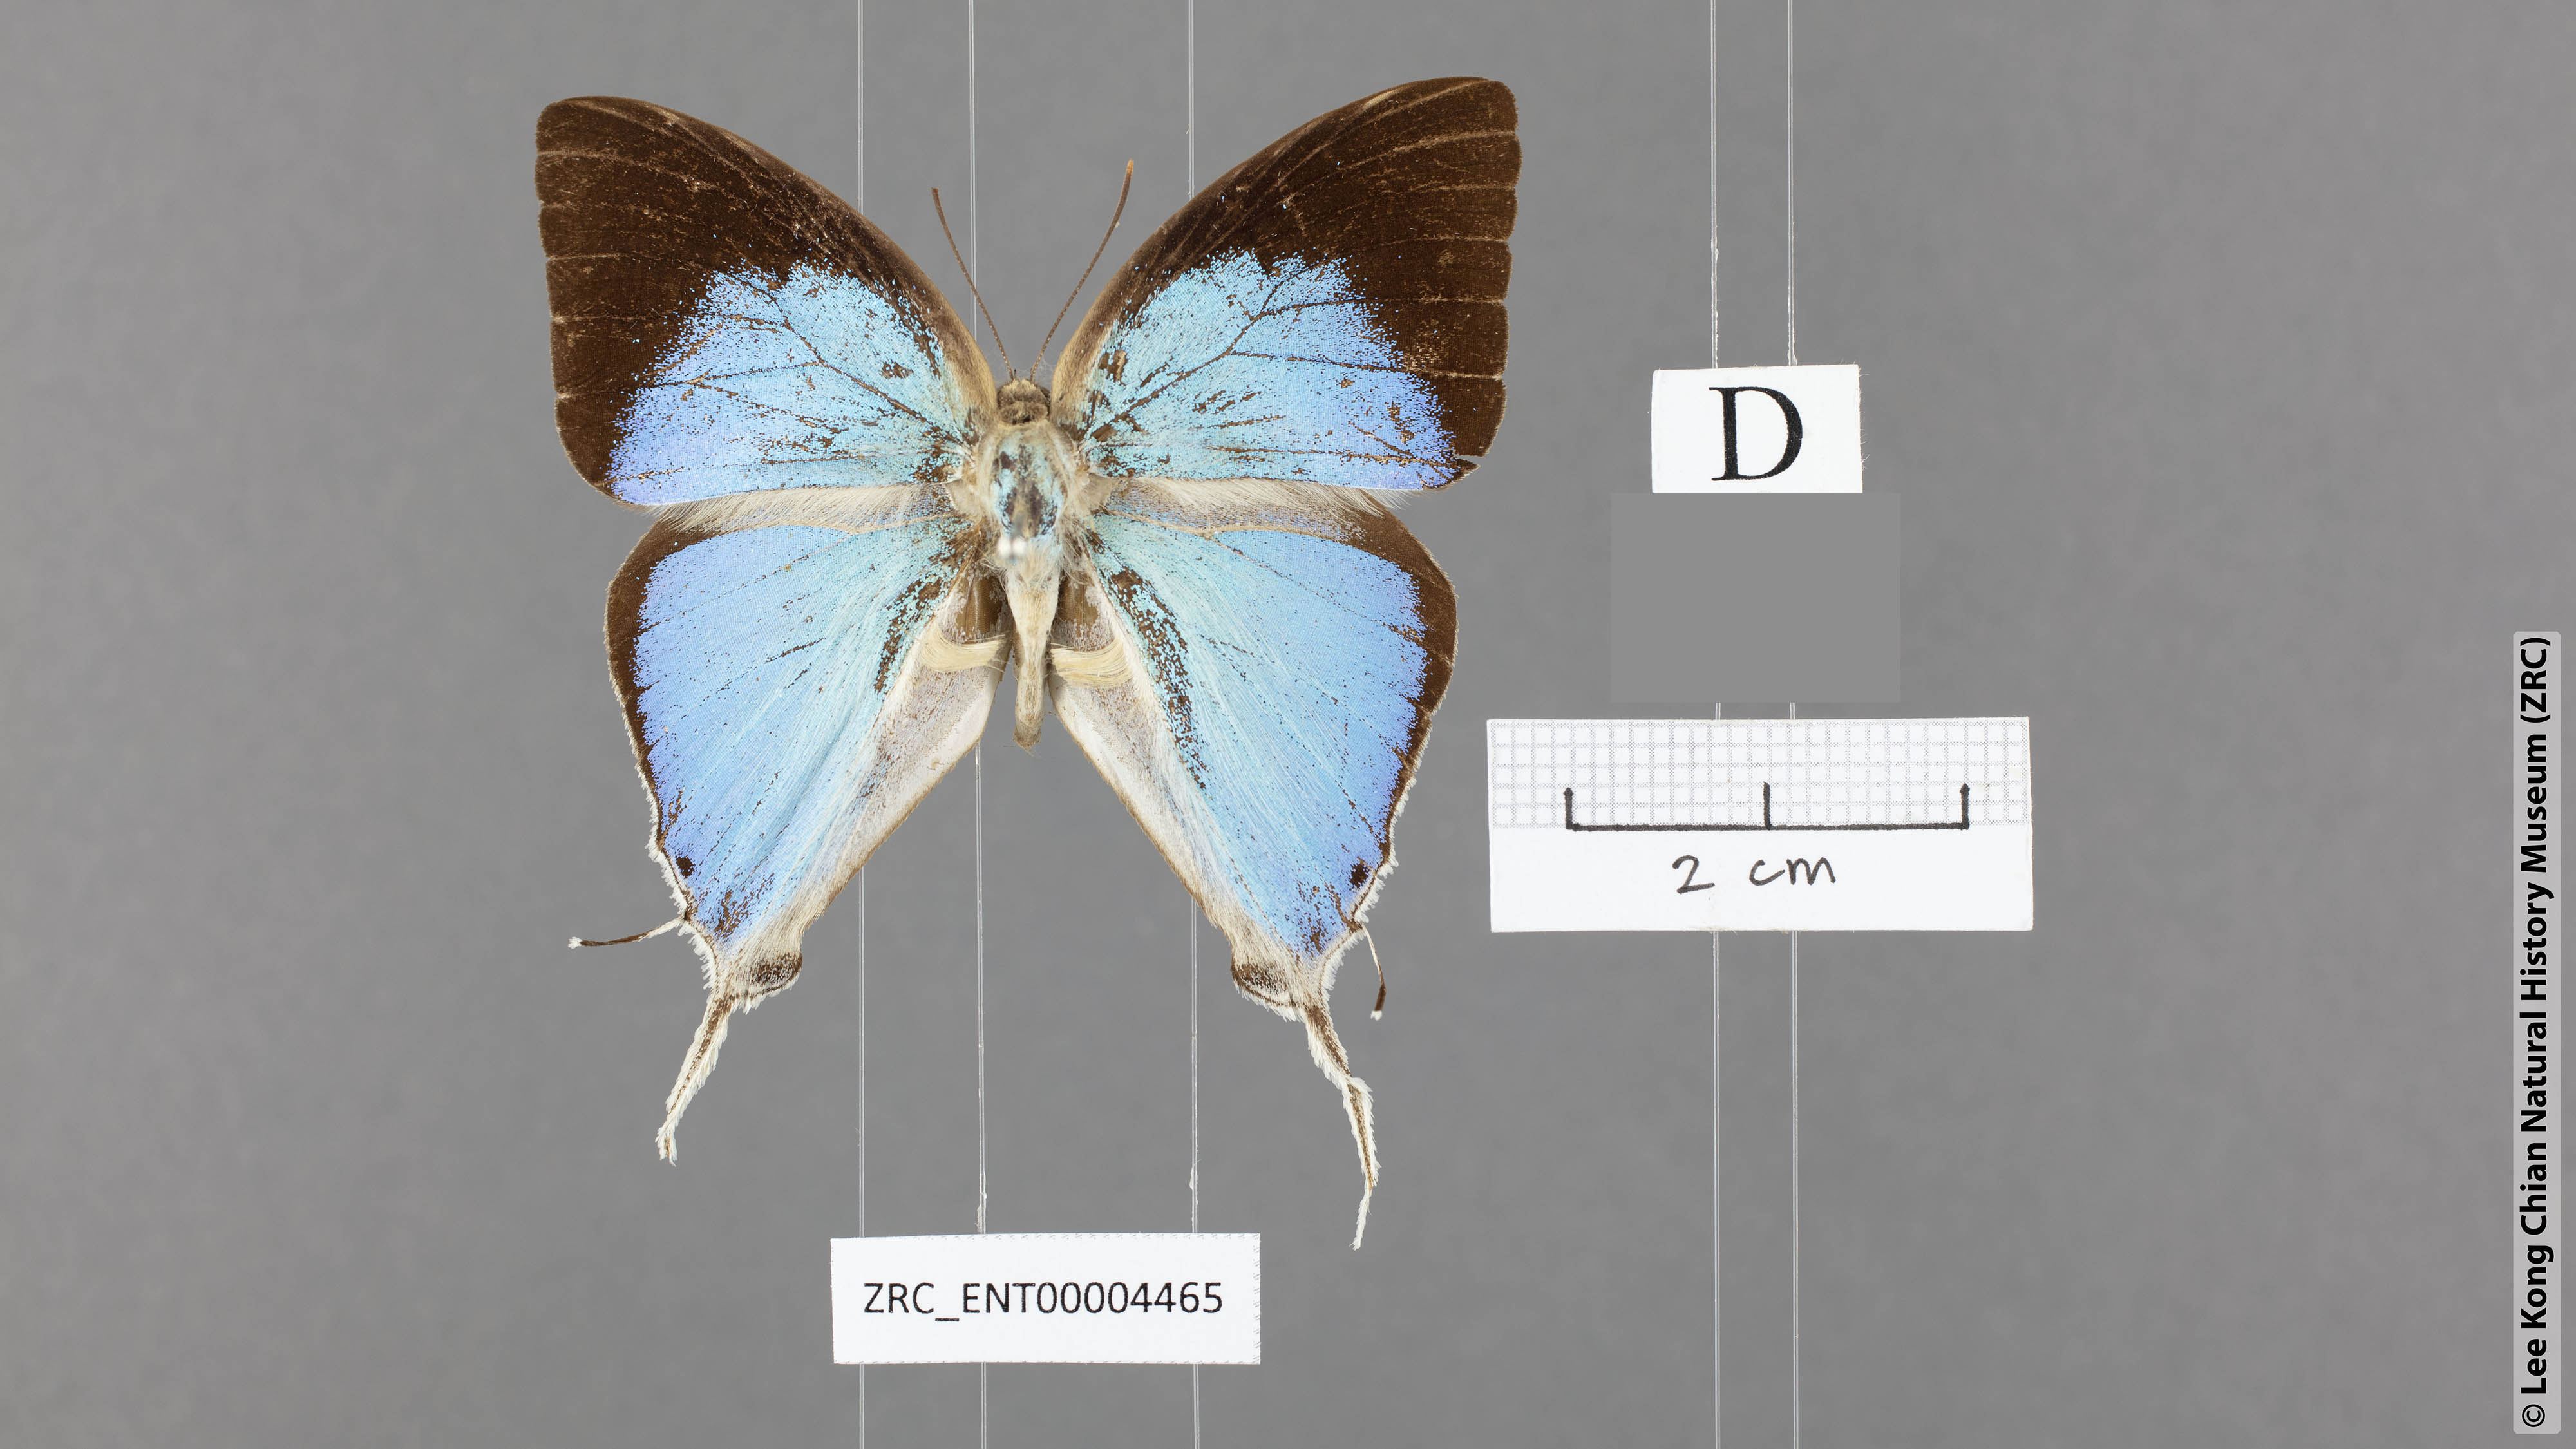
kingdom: Animalia
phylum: Arthropoda
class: Insecta
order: Lepidoptera
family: Lycaenidae
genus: Purlisa
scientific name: Purlisa giganteus
